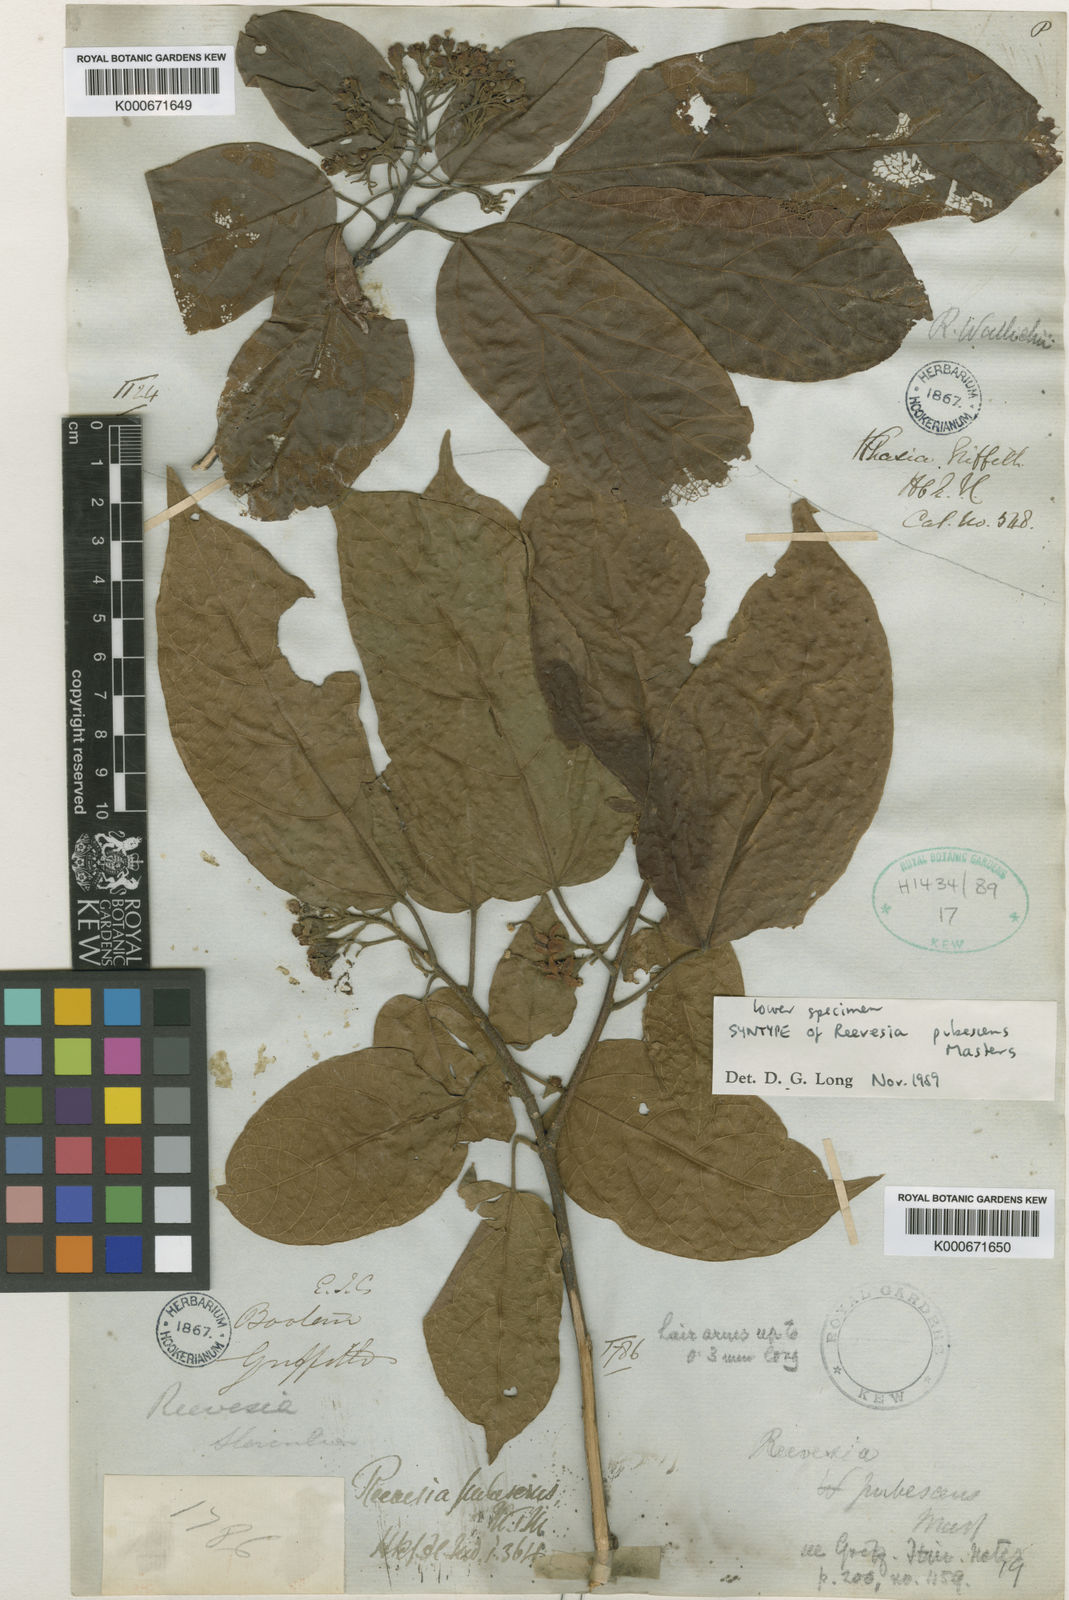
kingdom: Plantae
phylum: Tracheophyta
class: Magnoliopsida
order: Malvales
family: Malvaceae
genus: Reevesia
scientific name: Reevesia pubescens
